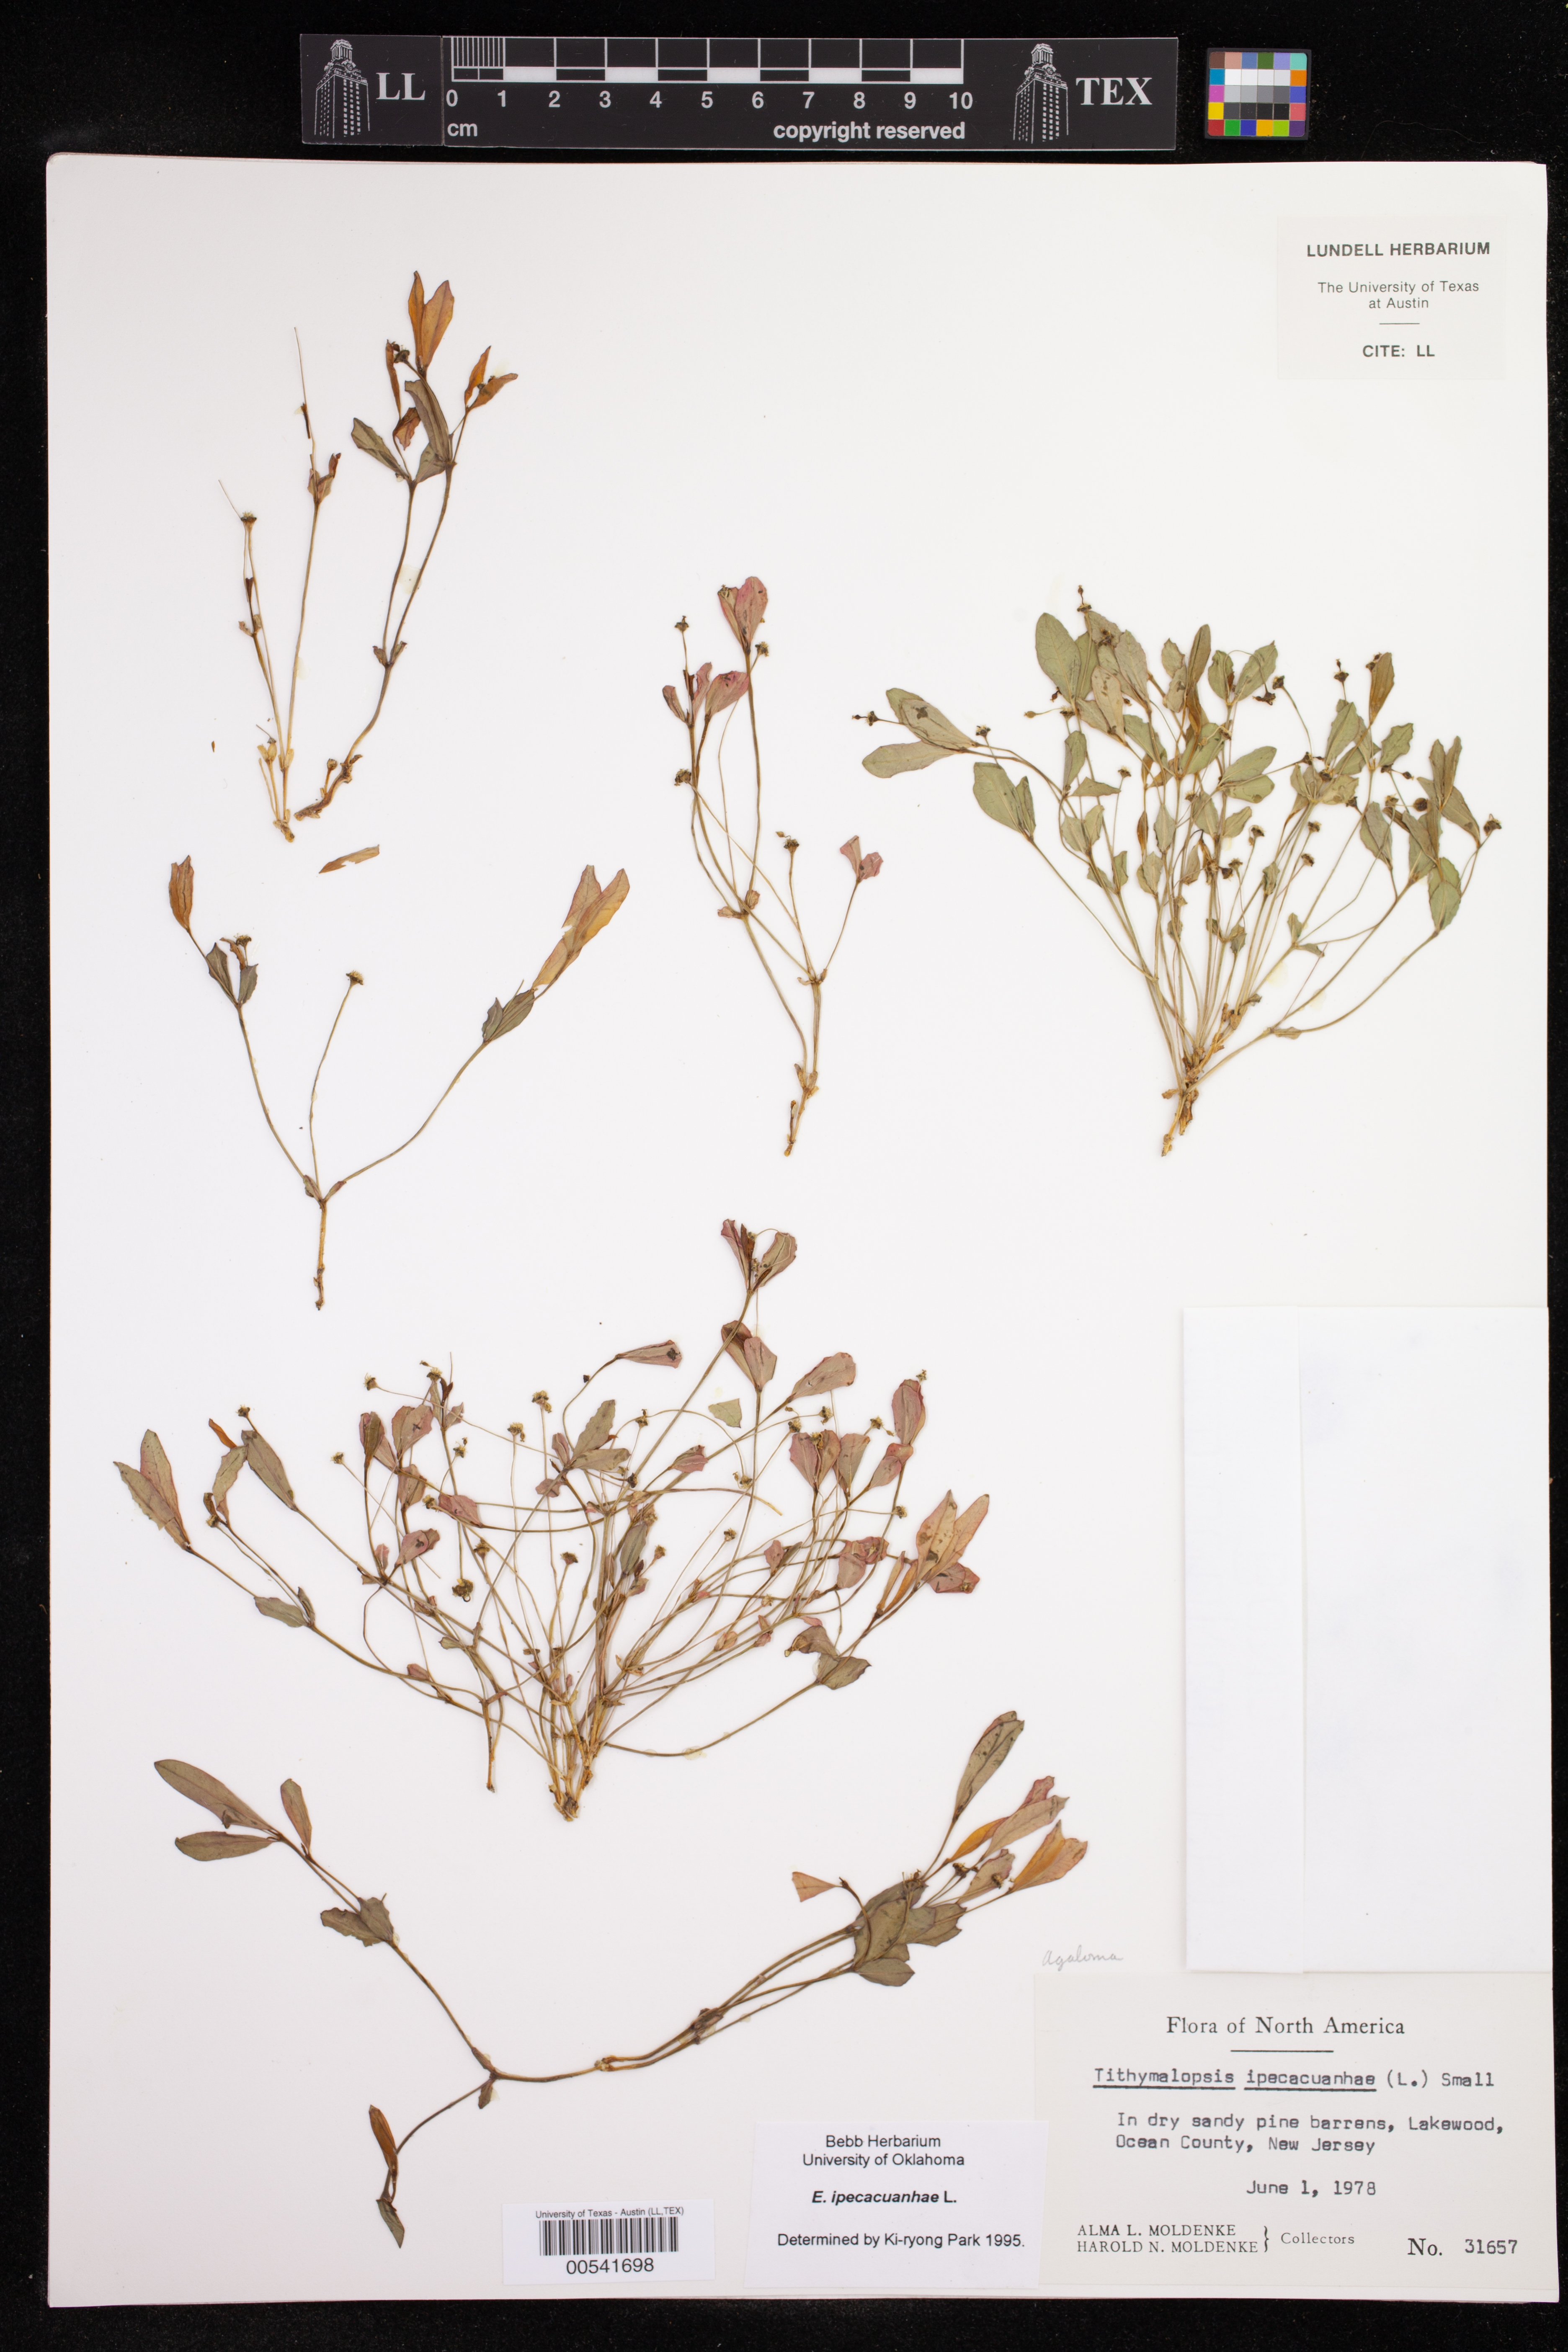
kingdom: Plantae
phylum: Tracheophyta
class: Magnoliopsida
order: Malpighiales
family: Euphorbiaceae
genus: Euphorbia
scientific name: Euphorbia ipecacuanhae
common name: Carolina ipecac
